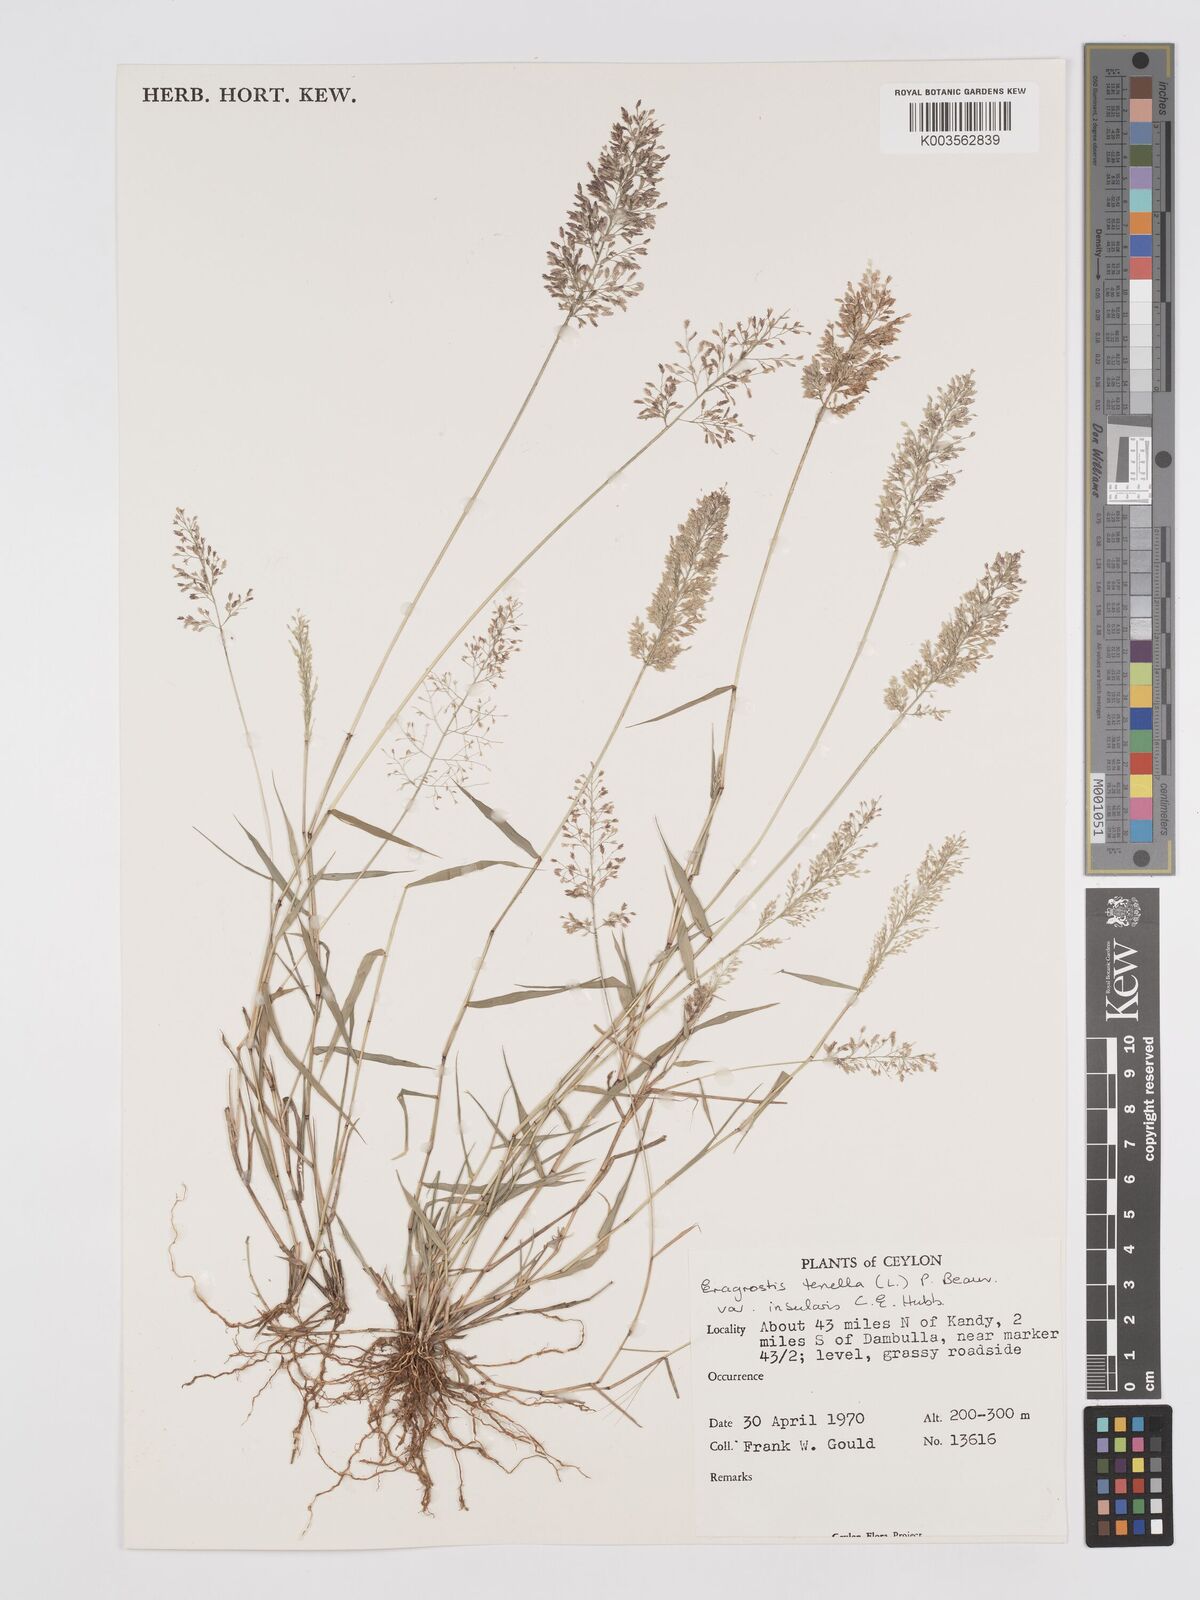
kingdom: Plantae
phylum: Tracheophyta
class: Liliopsida
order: Poales
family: Poaceae
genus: Eragrostis
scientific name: Eragrostis viscosa
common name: Sticky love grass
